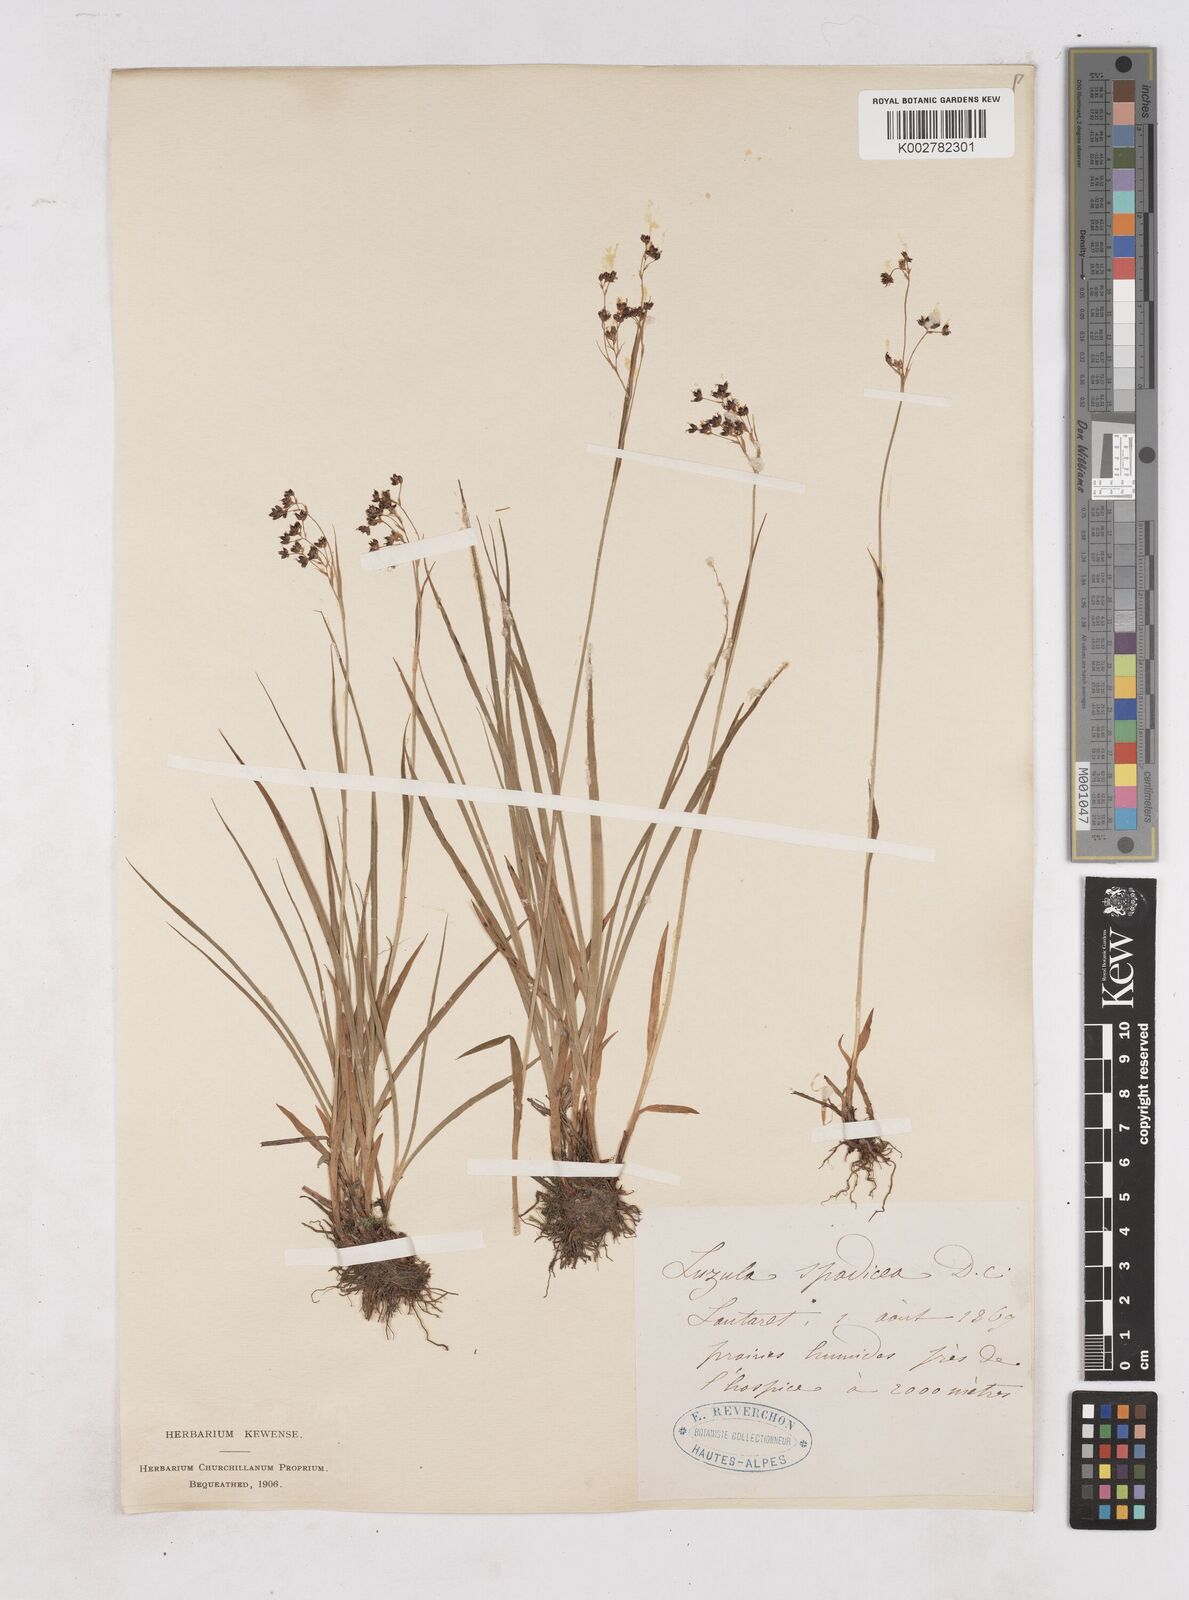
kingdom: Plantae
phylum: Tracheophyta
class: Liliopsida
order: Poales
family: Juncaceae
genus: Luzula
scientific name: Luzula alpinopilosa
